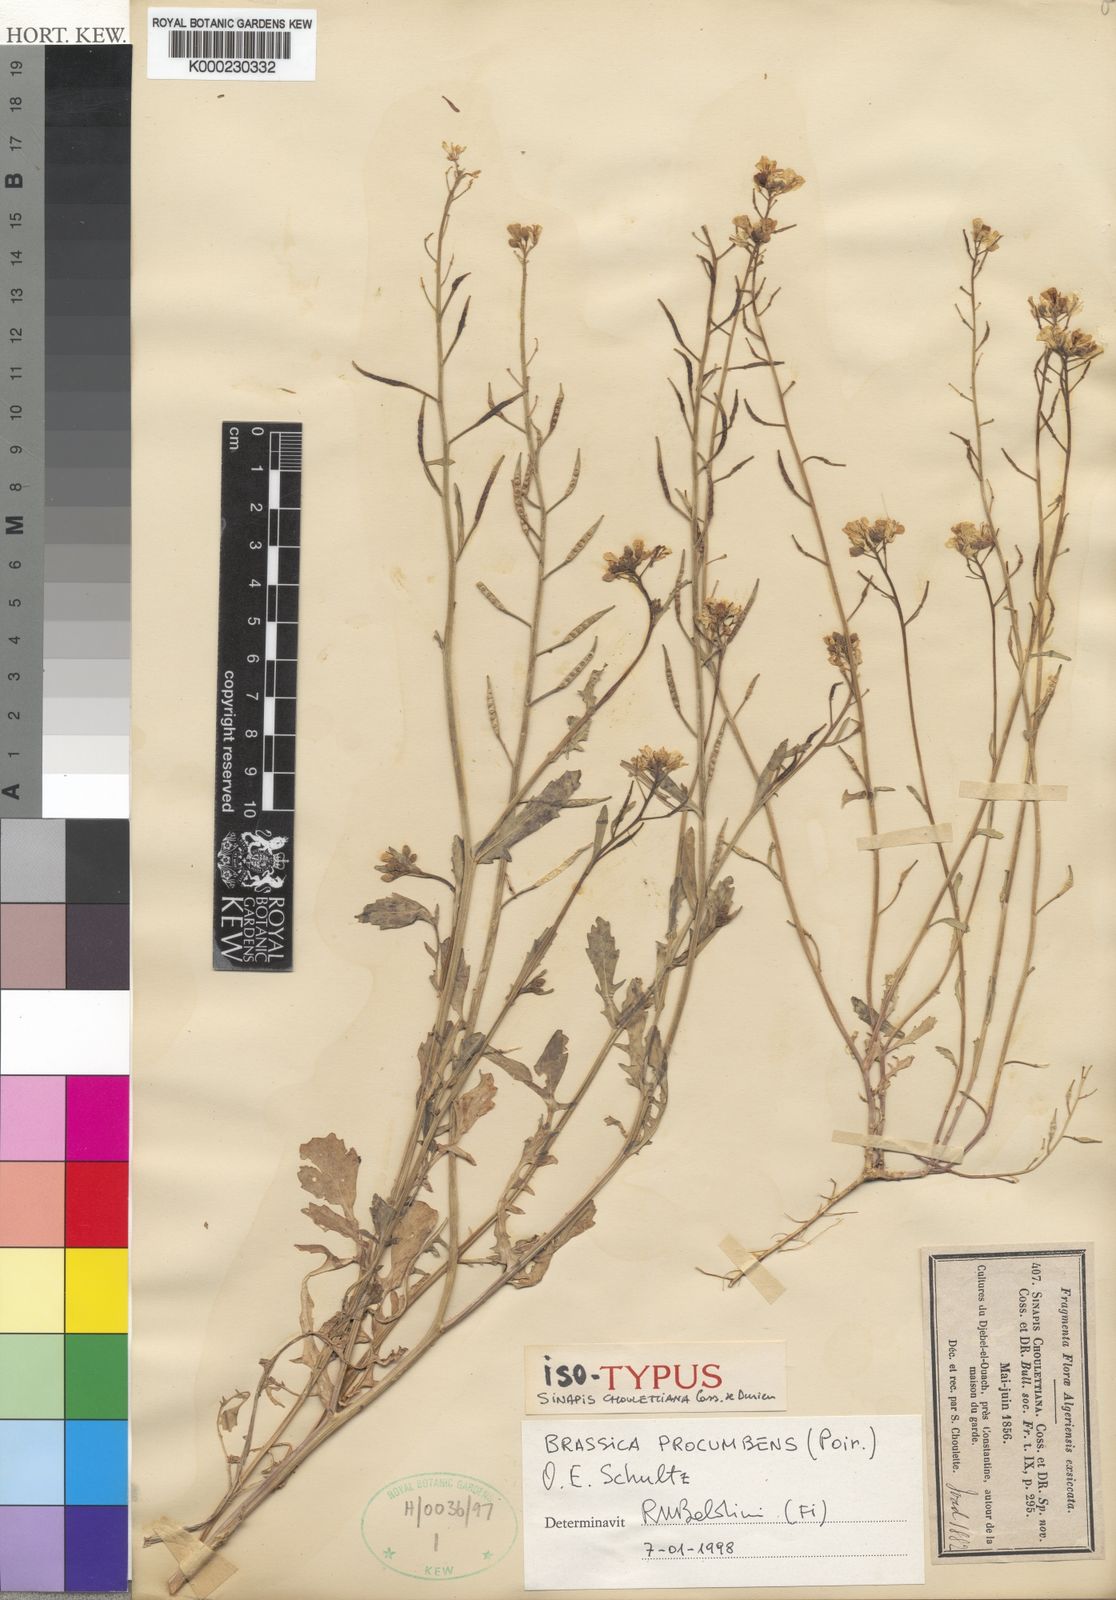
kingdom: Plantae
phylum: Tracheophyta
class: Magnoliopsida
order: Brassicales
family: Brassicaceae
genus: Brassica
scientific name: Brassica procumbens
